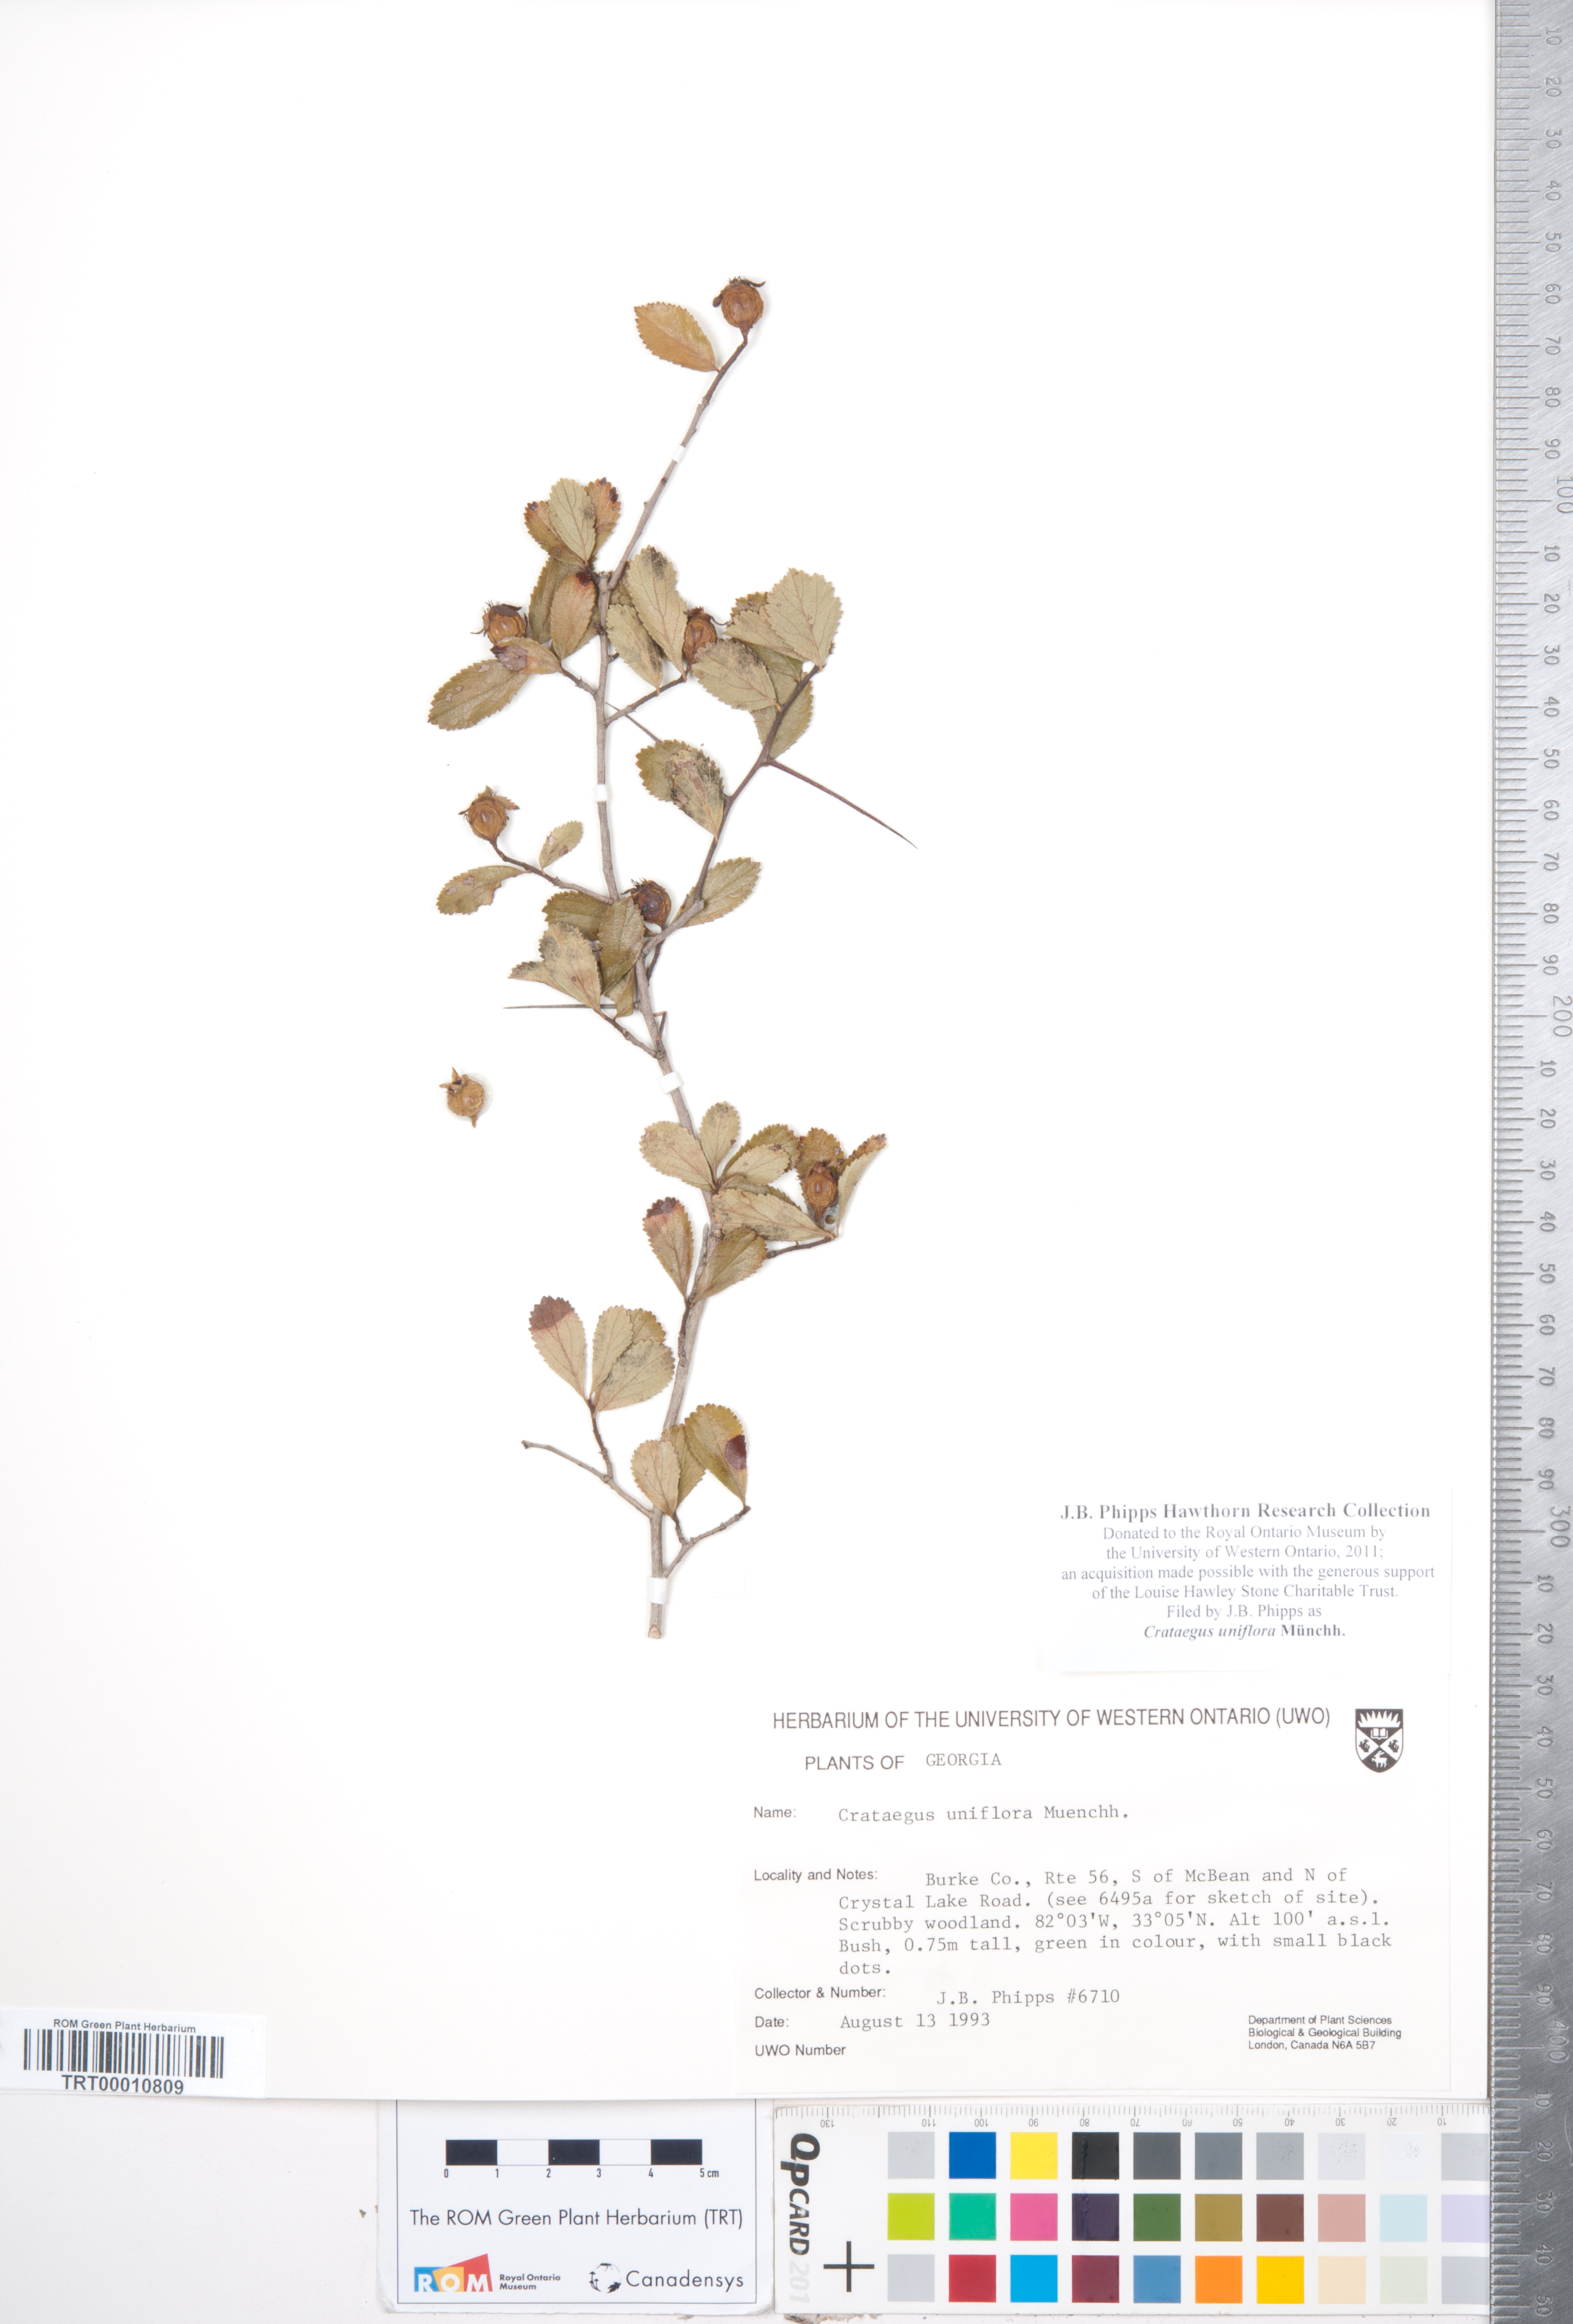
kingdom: Plantae
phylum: Tracheophyta
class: Magnoliopsida
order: Rosales
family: Rosaceae
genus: Crataegus
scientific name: Crataegus uniflora
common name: One-flower hawthorn
